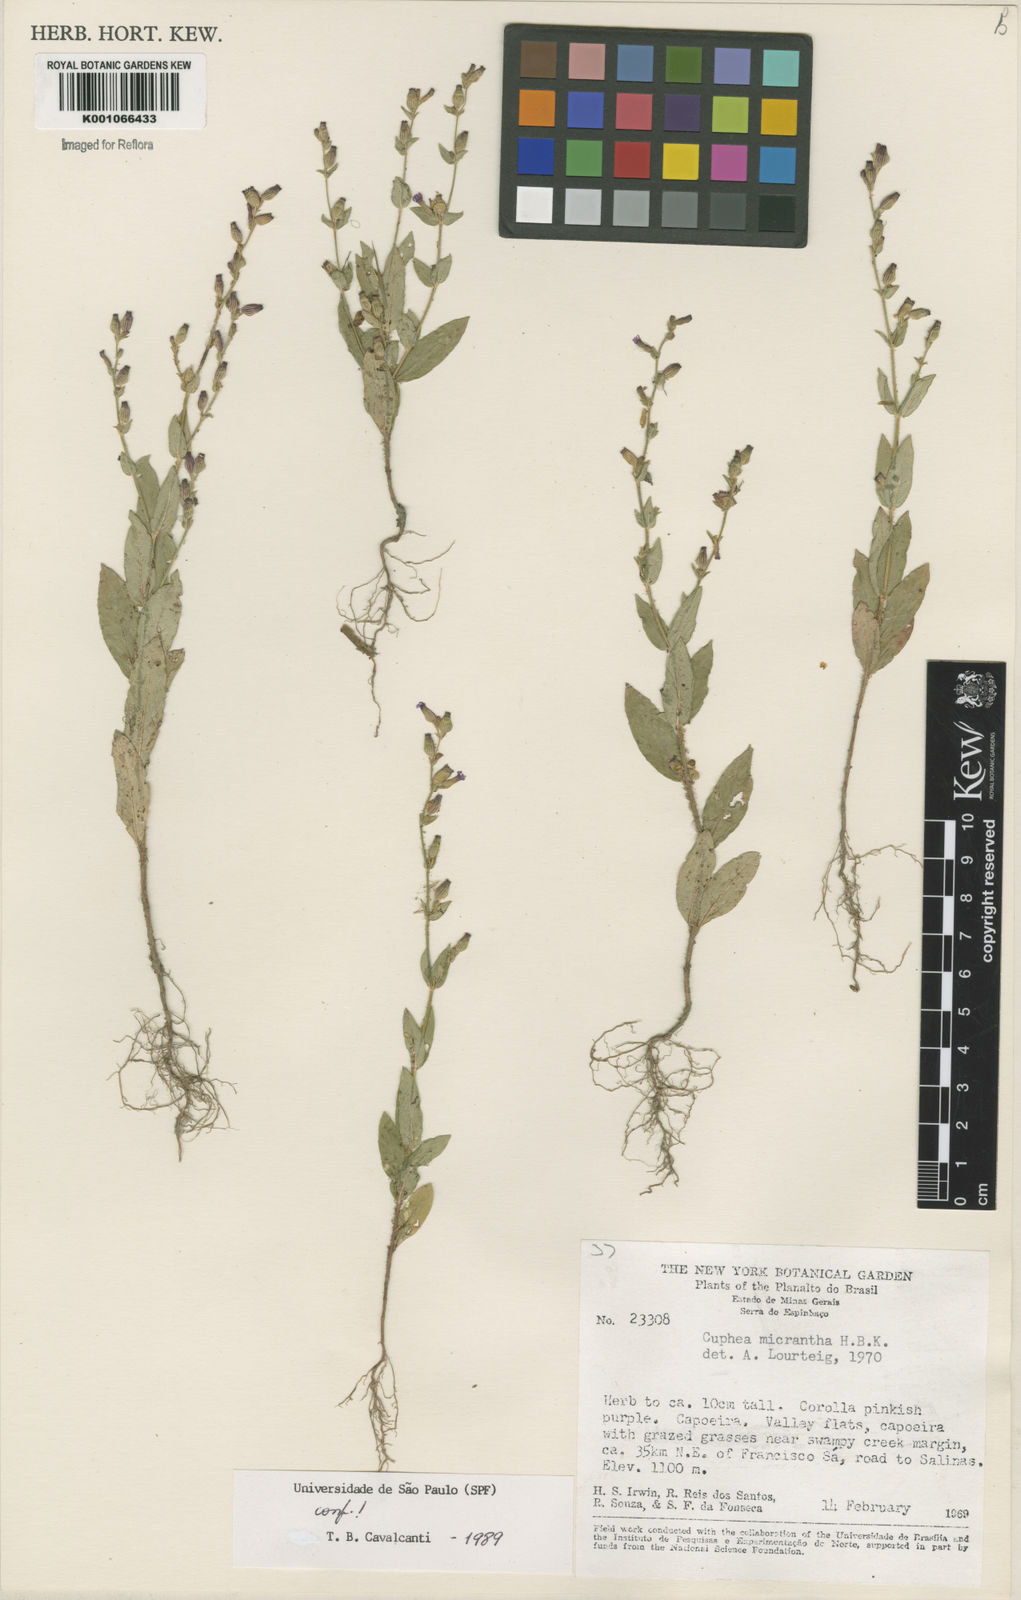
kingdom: Plantae
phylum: Tracheophyta
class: Magnoliopsida
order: Myrtales
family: Lythraceae
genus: Cuphea
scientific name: Cuphea micrantha
